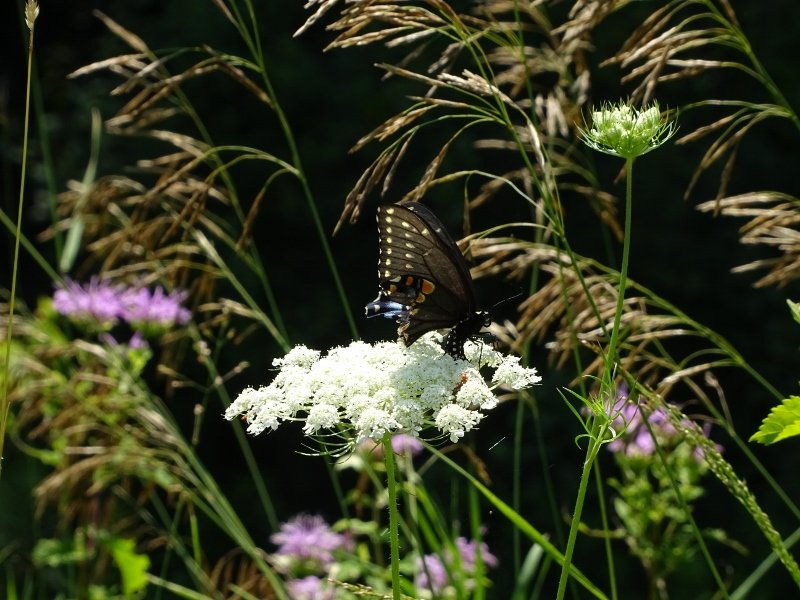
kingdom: Animalia
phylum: Arthropoda
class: Insecta
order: Lepidoptera
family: Papilionidae
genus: Papilio
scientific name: Papilio polyxenes
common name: Black Swallowtail
